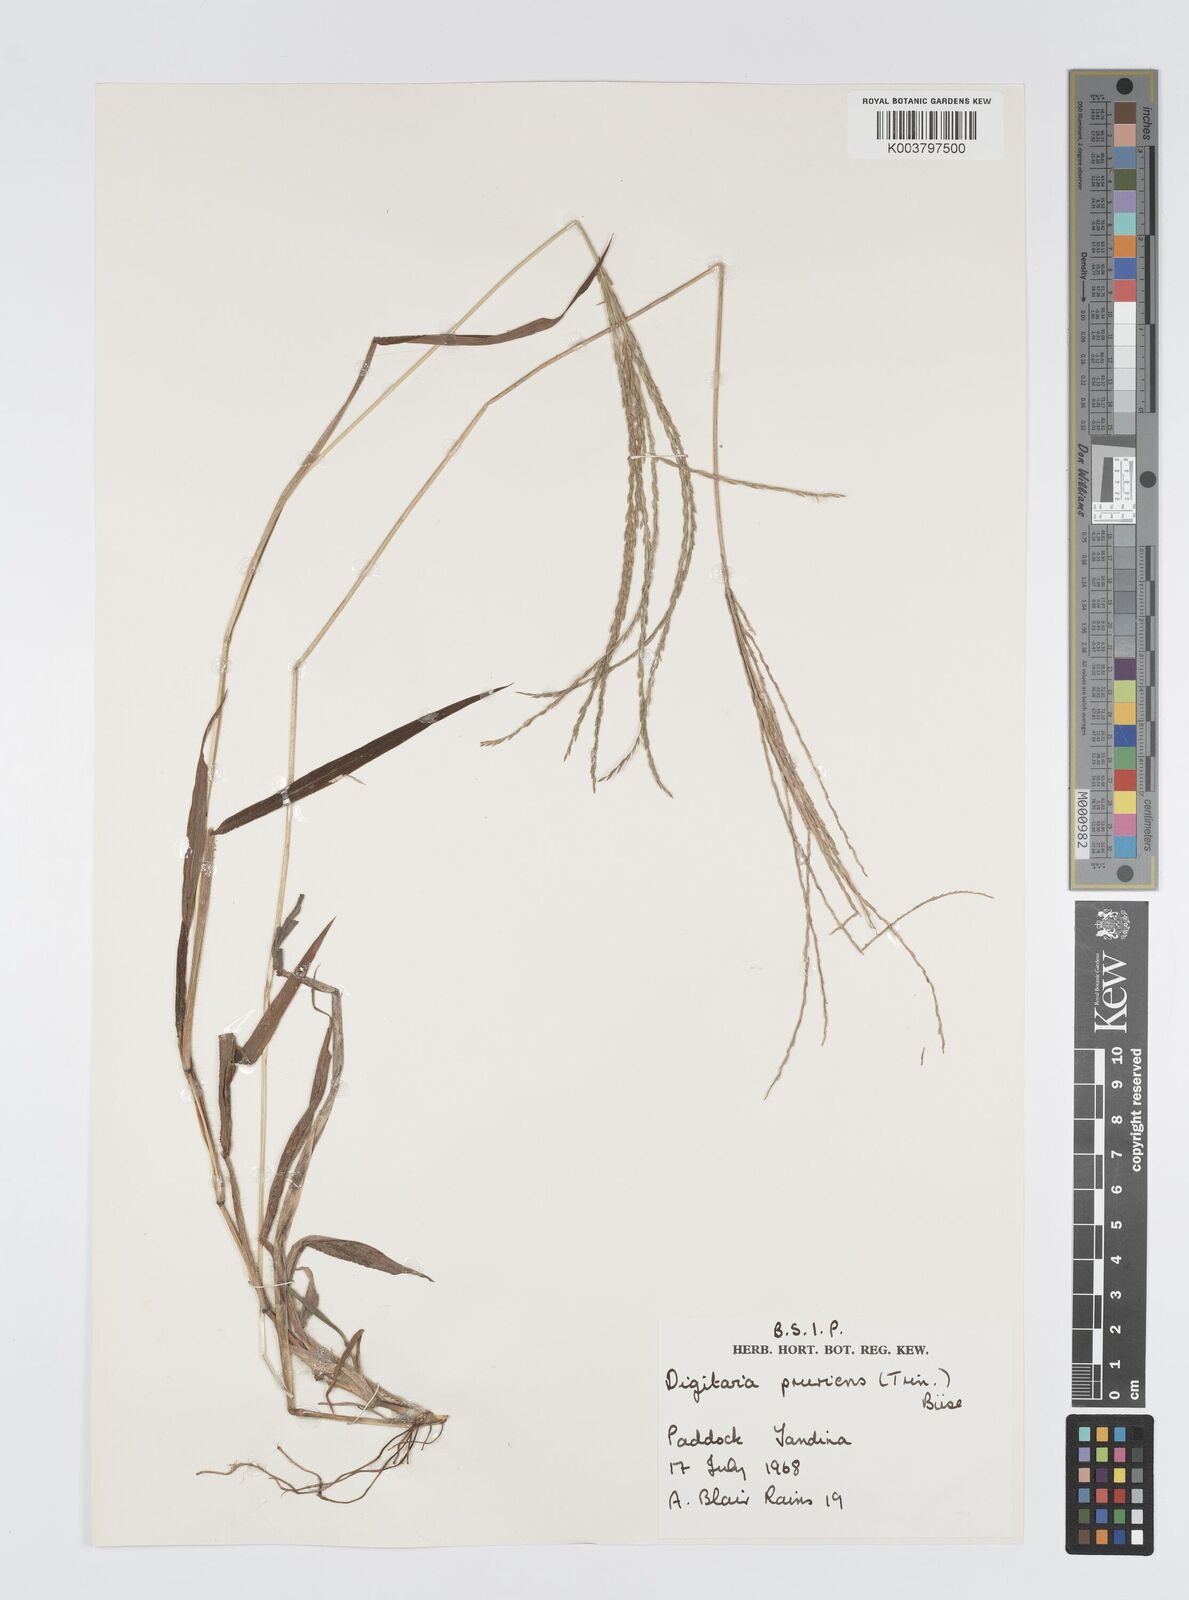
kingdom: Plantae
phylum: Tracheophyta
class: Liliopsida
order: Poales
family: Poaceae
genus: Digitaria
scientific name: Digitaria setigera
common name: East indian crabgrass
